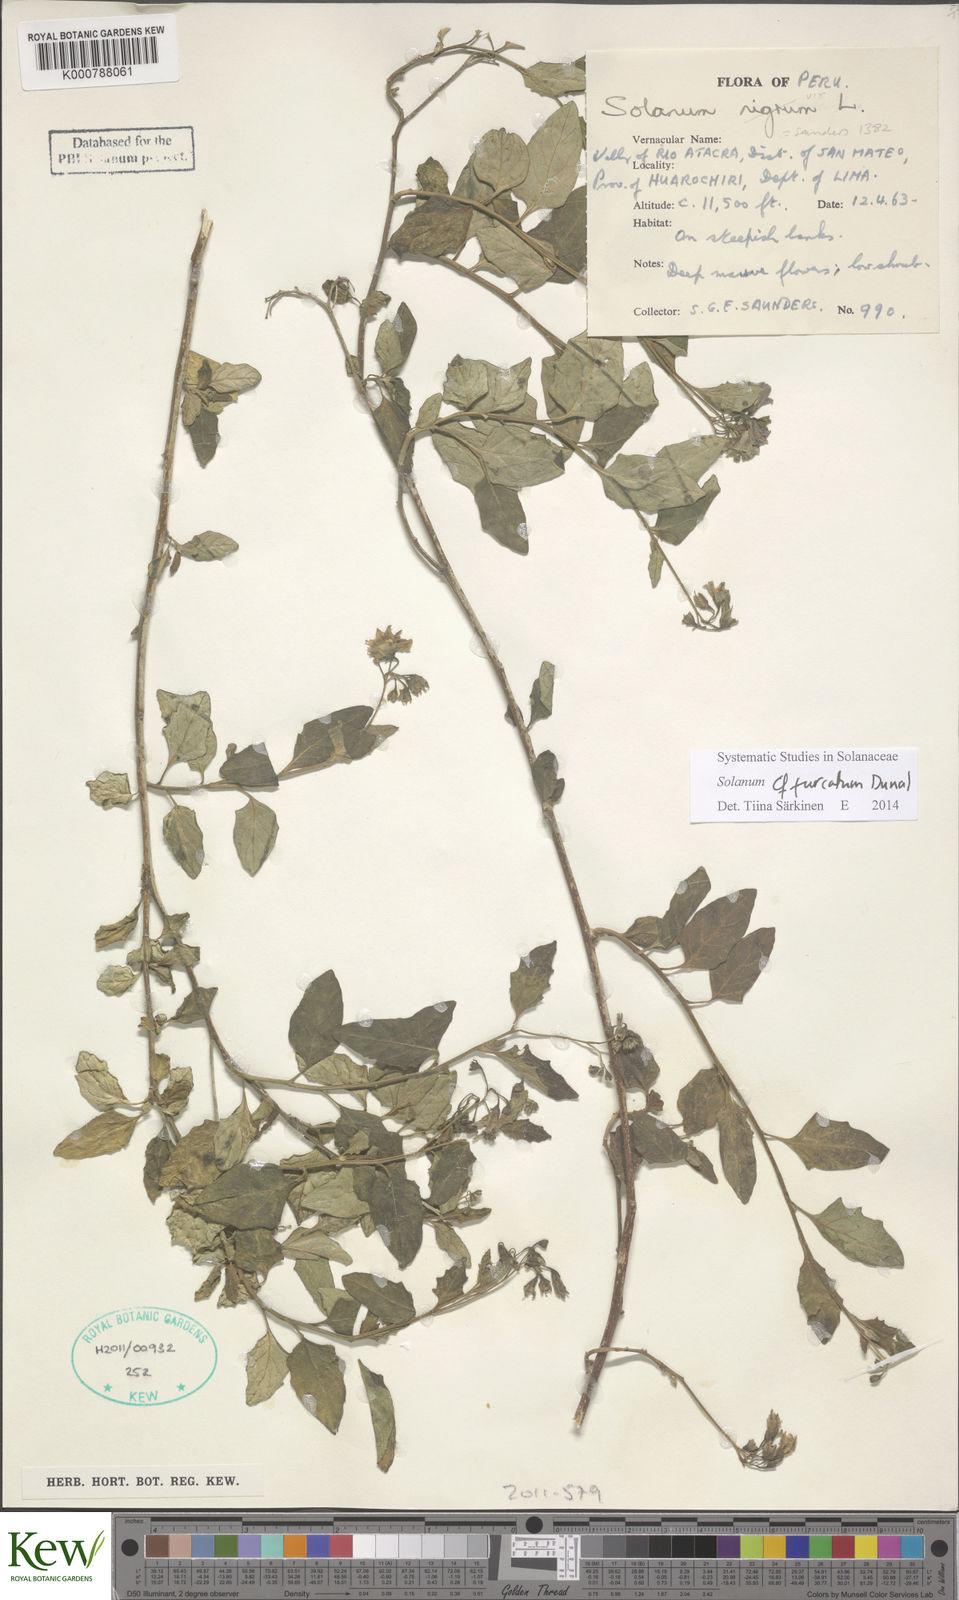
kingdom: Plantae
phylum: Tracheophyta
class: Magnoliopsida
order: Solanales
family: Solanaceae
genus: Solanum
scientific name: Solanum furcatum
